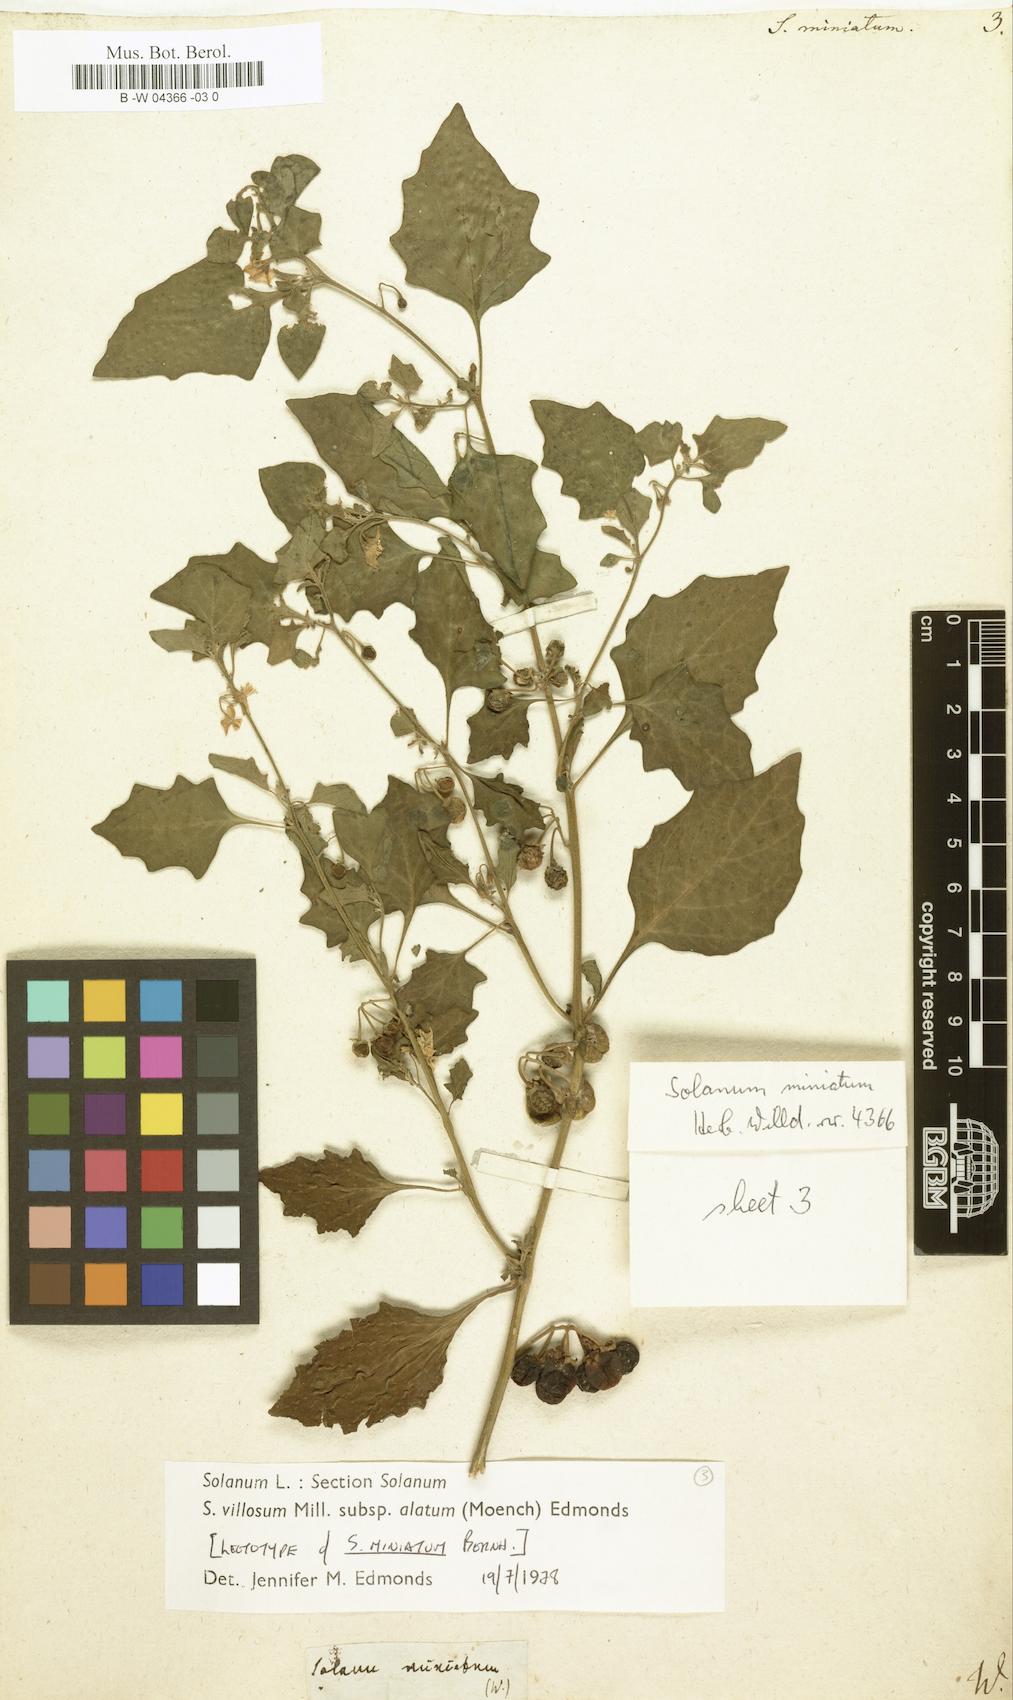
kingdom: Plantae
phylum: Tracheophyta
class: Magnoliopsida
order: Solanales
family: Solanaceae
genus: Solanum
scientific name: Solanum villosum
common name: Red nightshade
